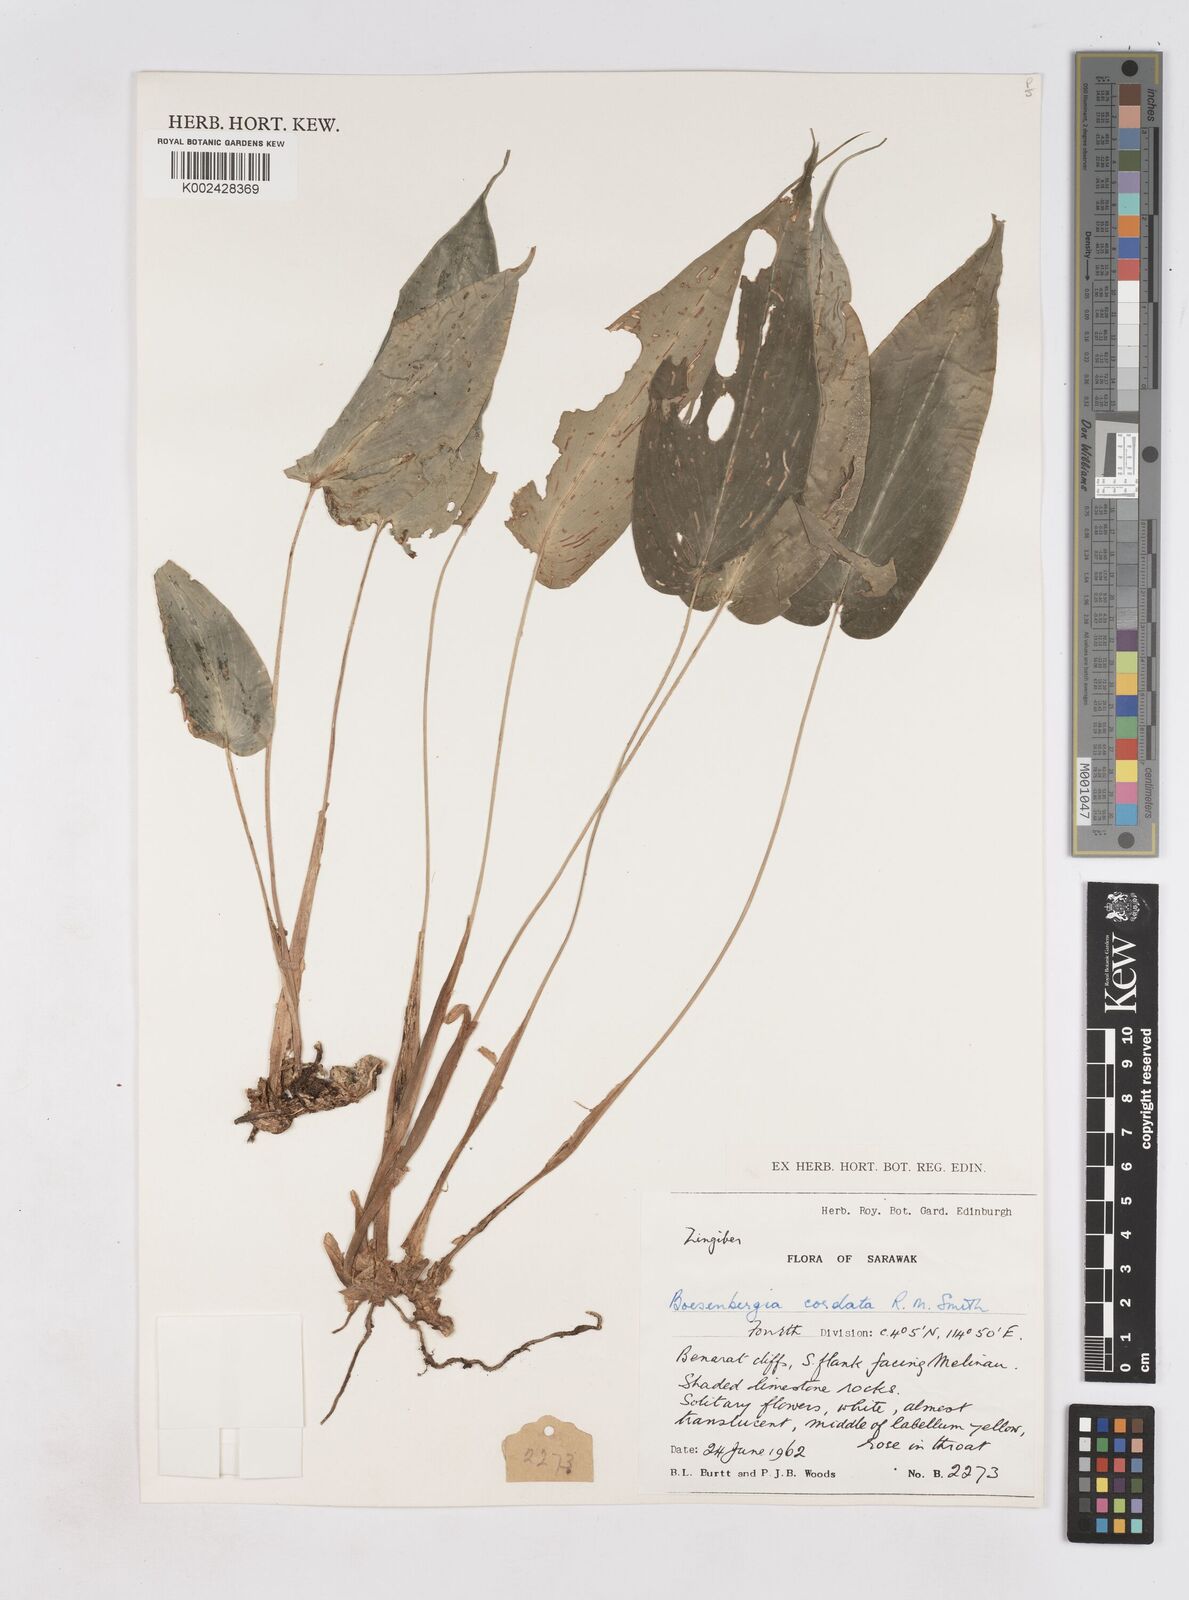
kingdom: Plantae
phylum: Tracheophyta
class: Liliopsida
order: Zingiberales
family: Zingiberaceae
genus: Boesenbergia
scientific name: Boesenbergia cordata
